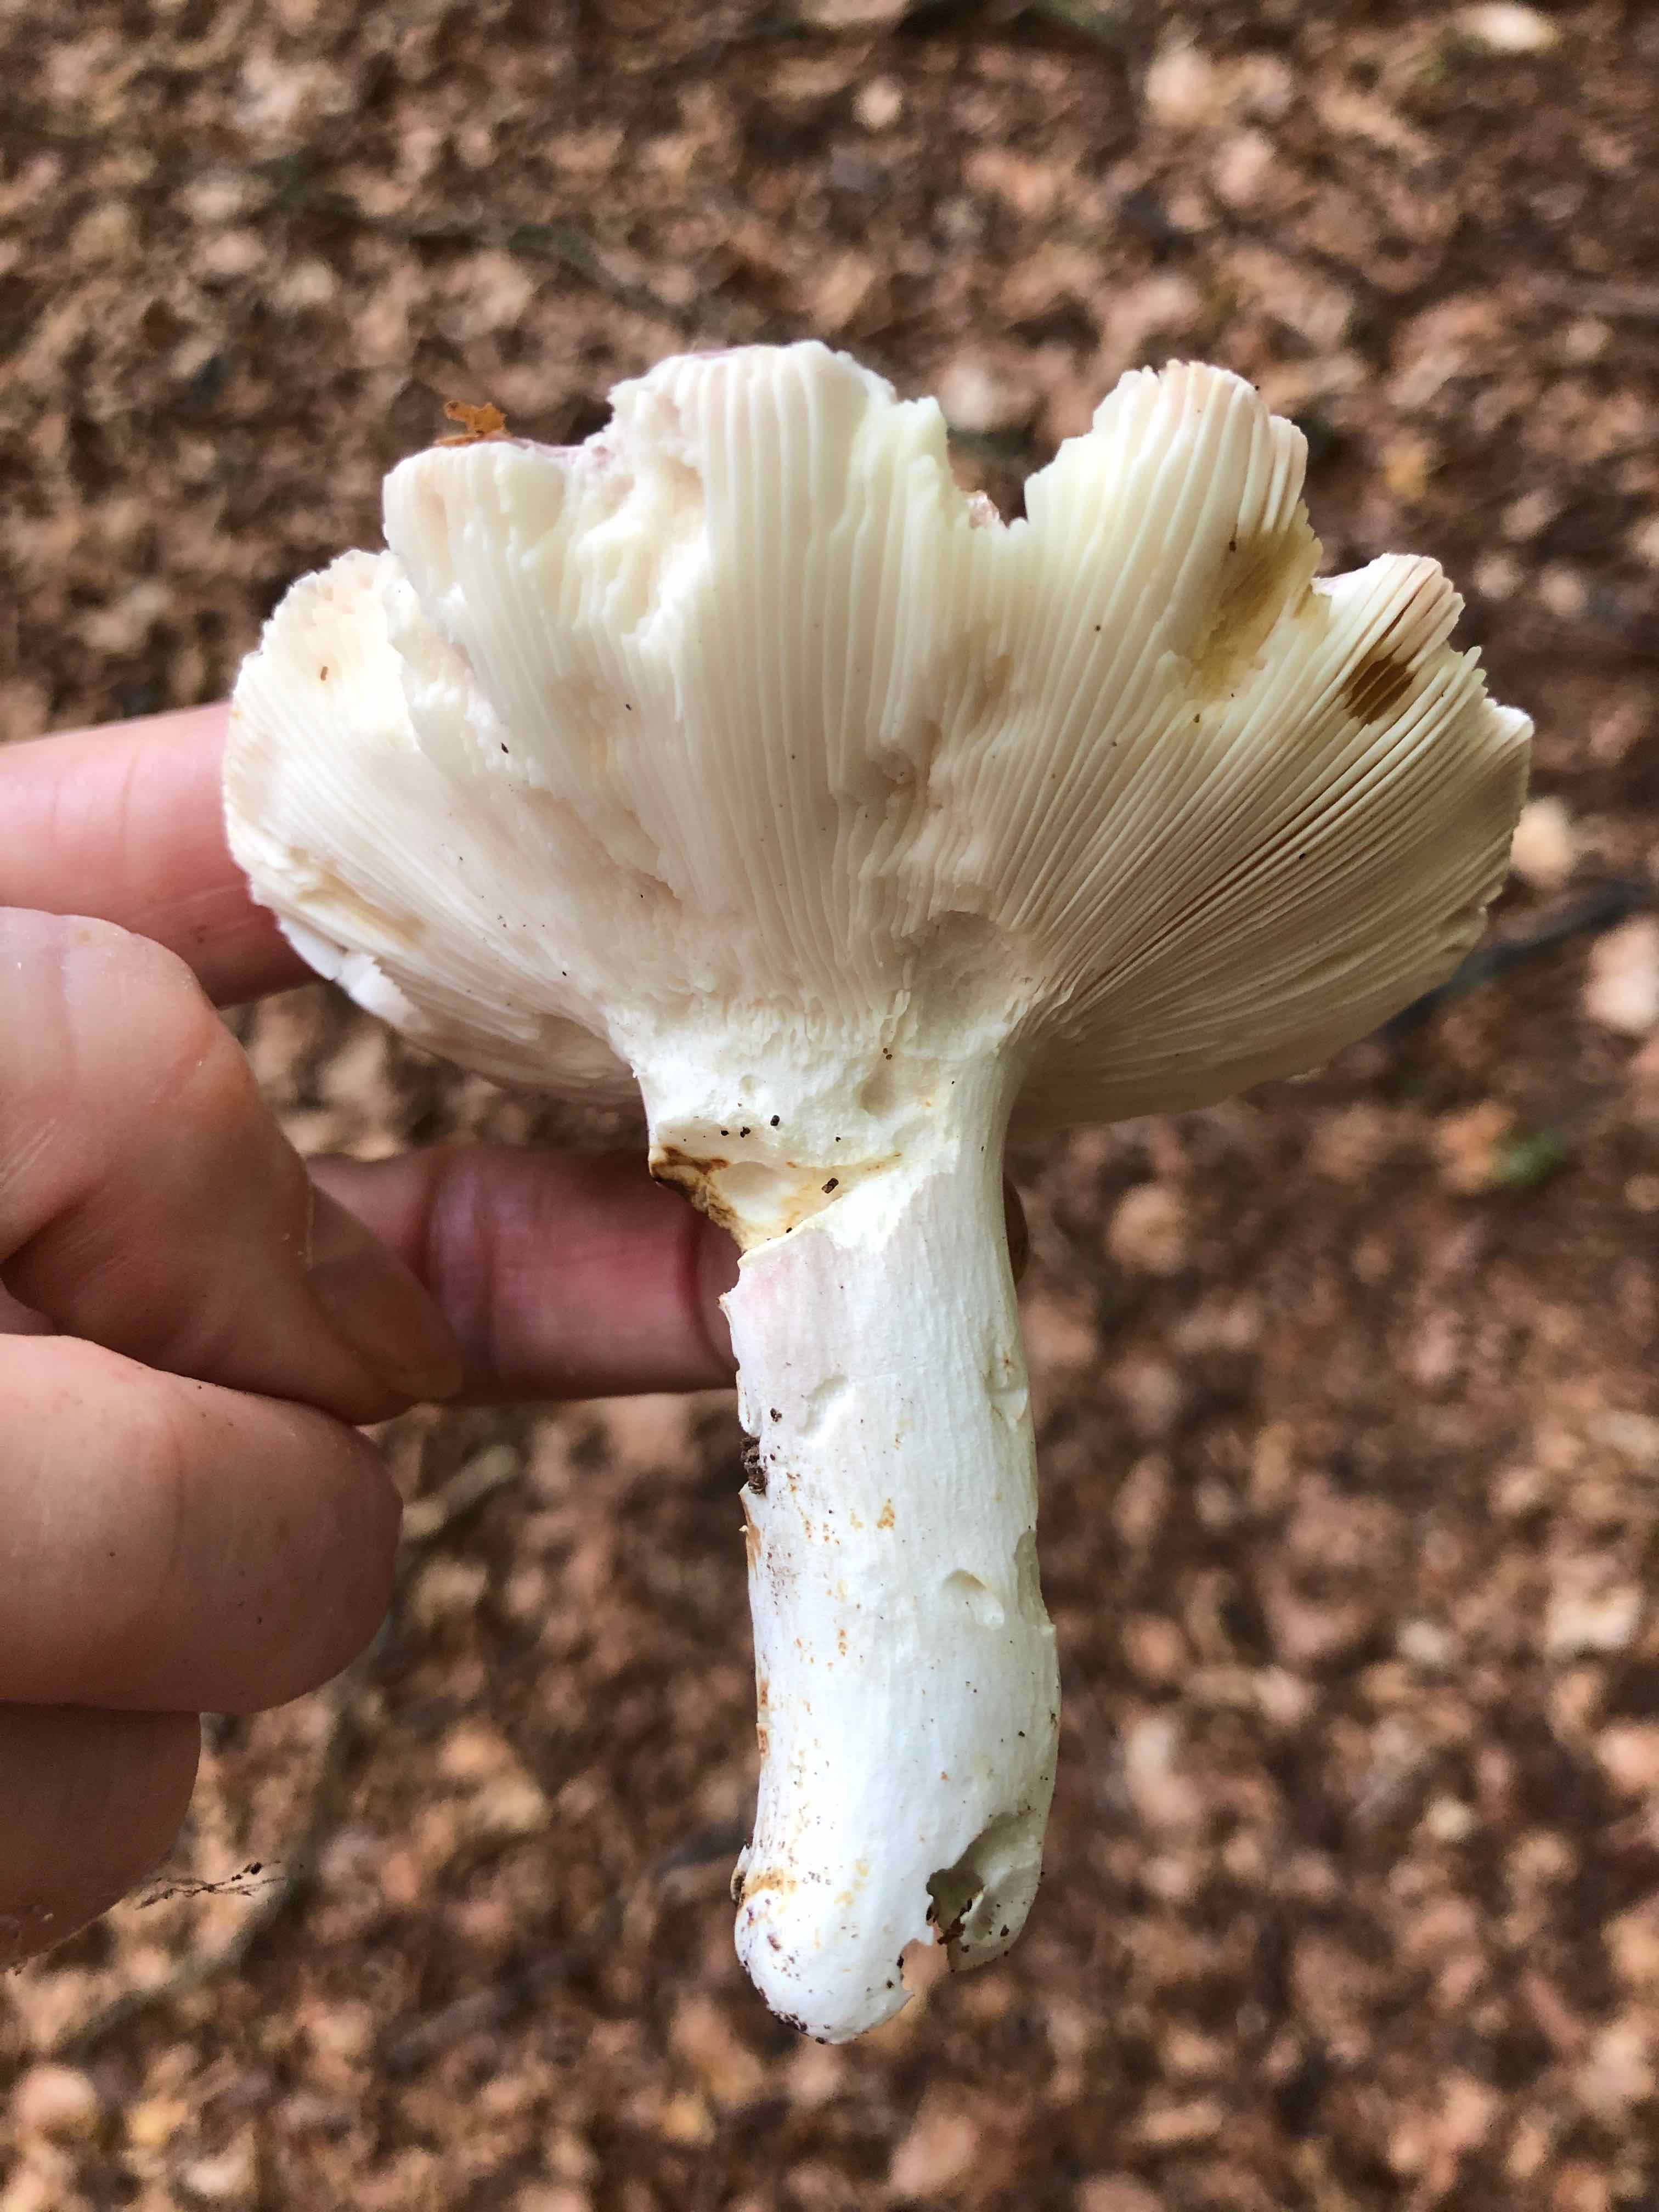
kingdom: Fungi
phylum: Basidiomycota
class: Agaricomycetes
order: Russulales
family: Russulaceae
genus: Russula
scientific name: Russula
